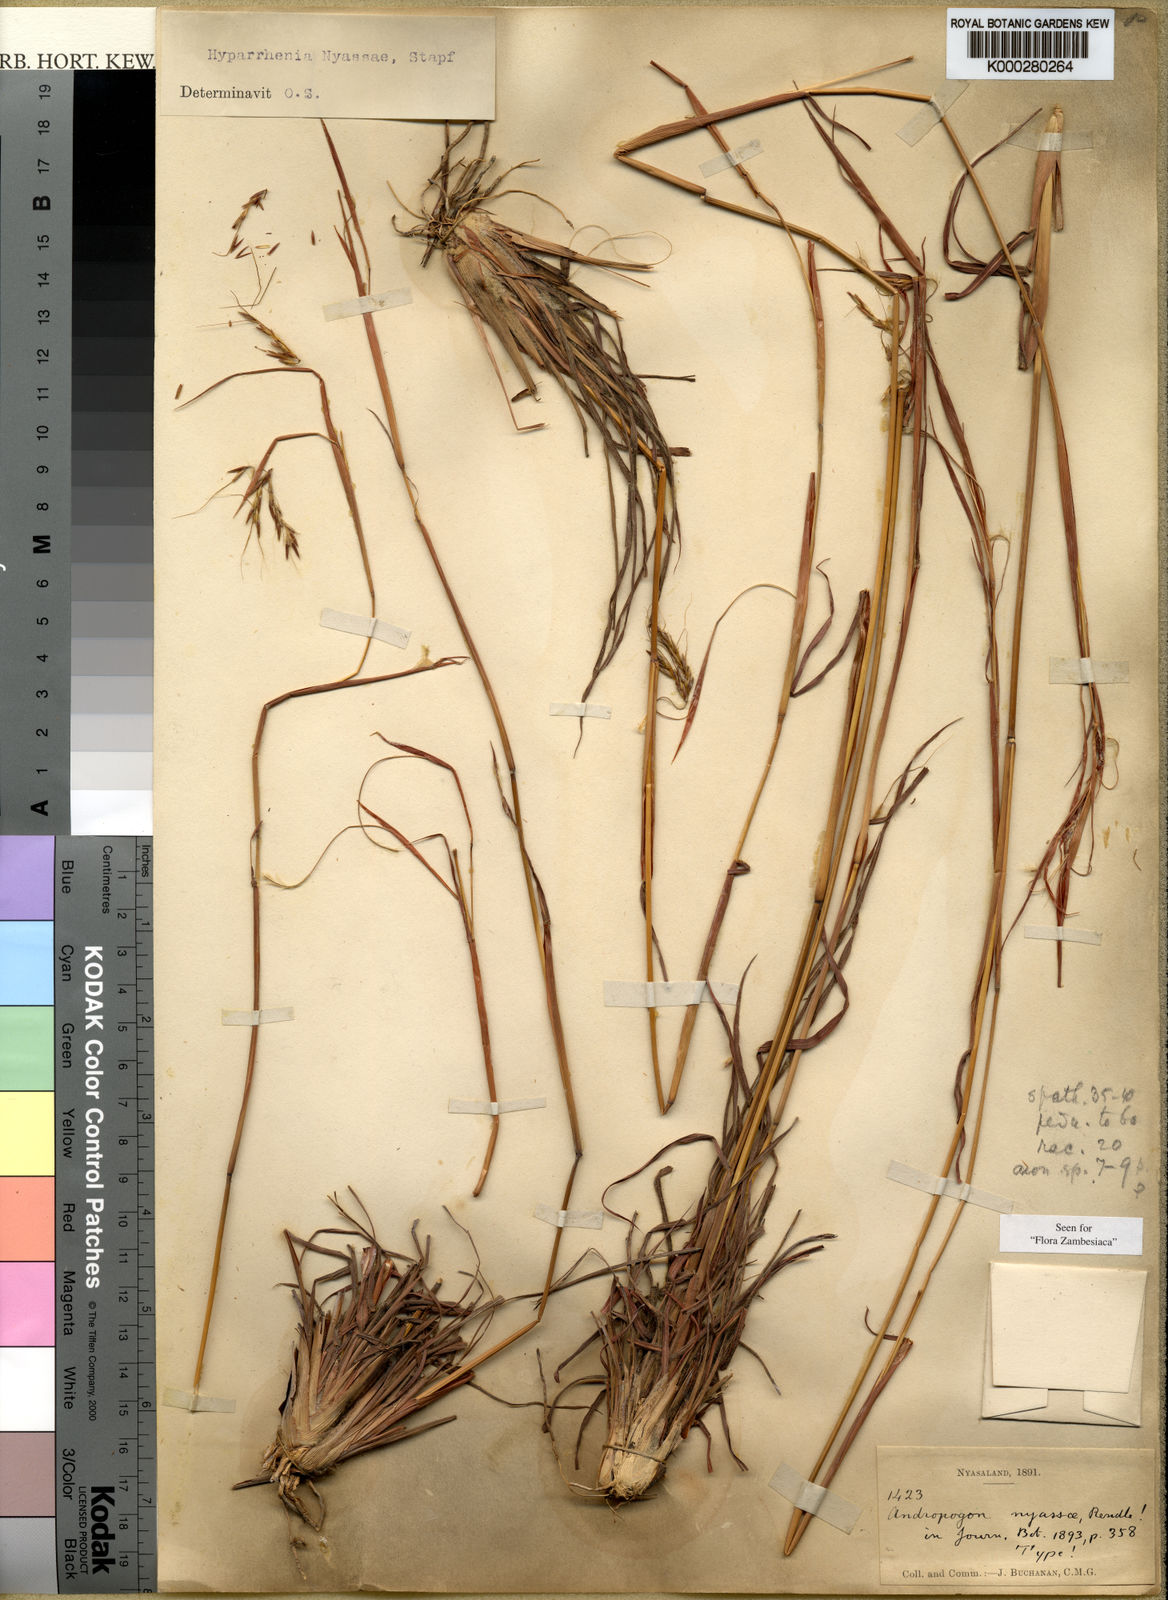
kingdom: Plantae
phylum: Tracheophyta
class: Liliopsida
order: Poales
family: Poaceae
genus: Hyparrhenia
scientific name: Hyparrhenia nyassae
